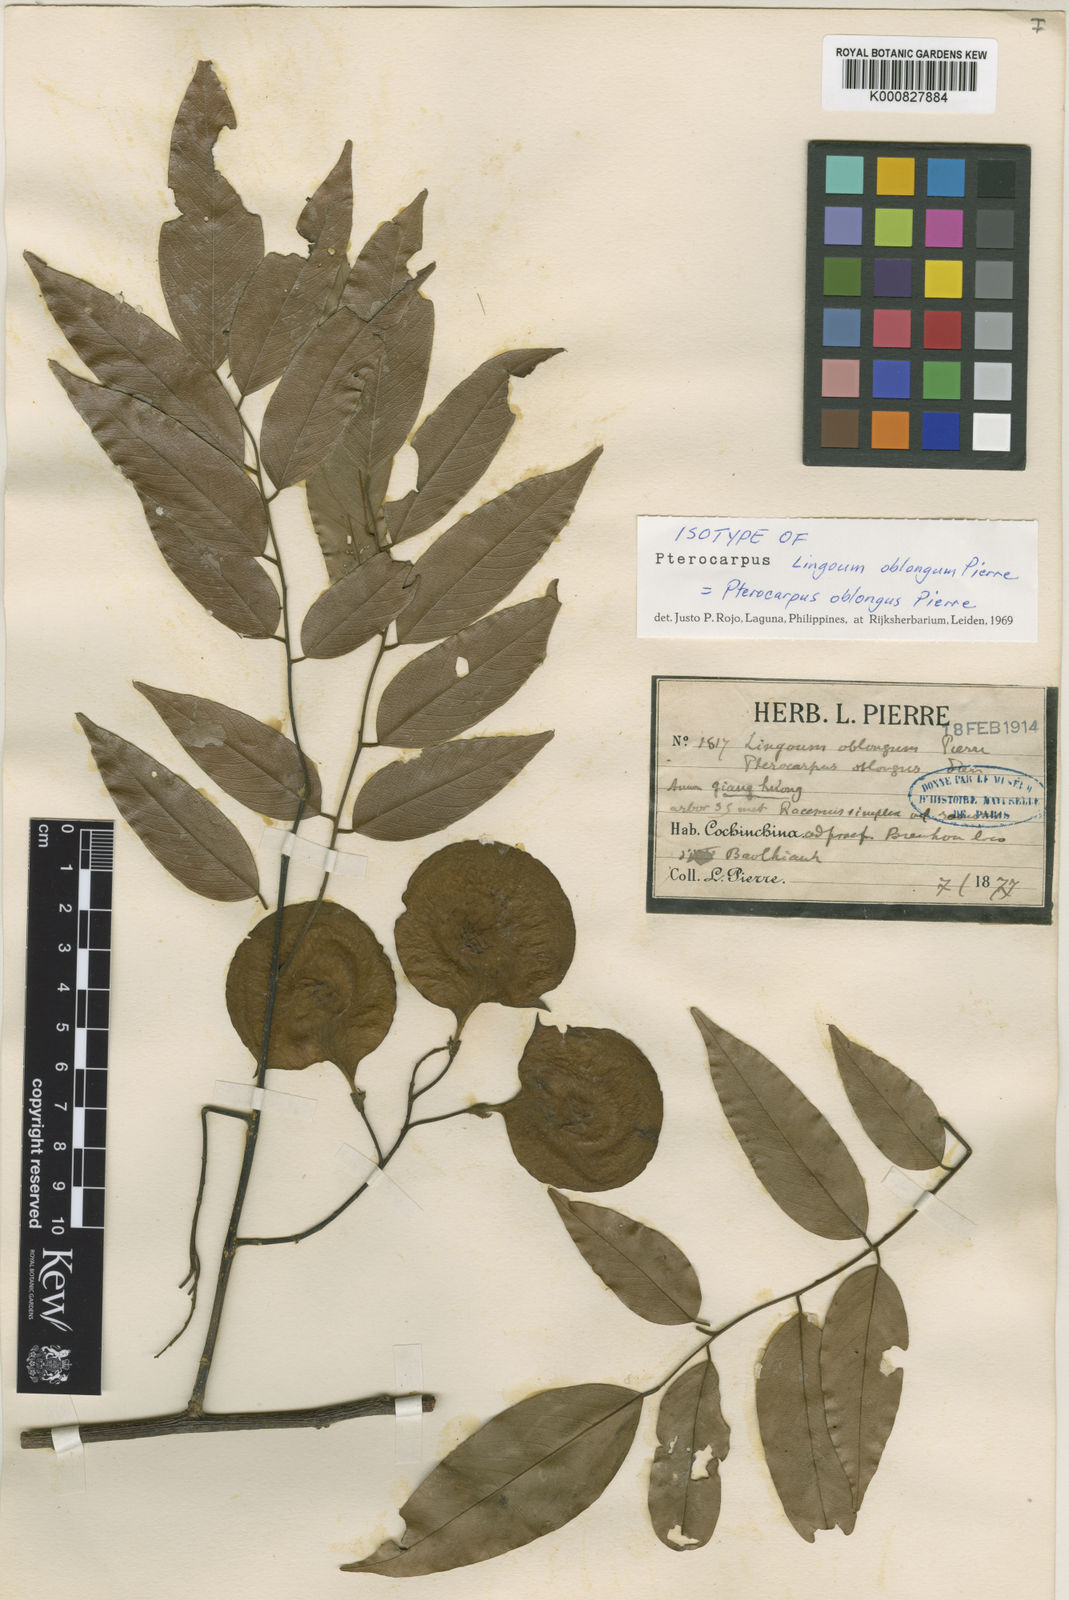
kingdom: Plantae
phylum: Tracheophyta
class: Magnoliopsida
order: Fabales
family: Fabaceae
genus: Pterocarpus
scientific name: Pterocarpus macrocarpus
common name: Burma padauk
